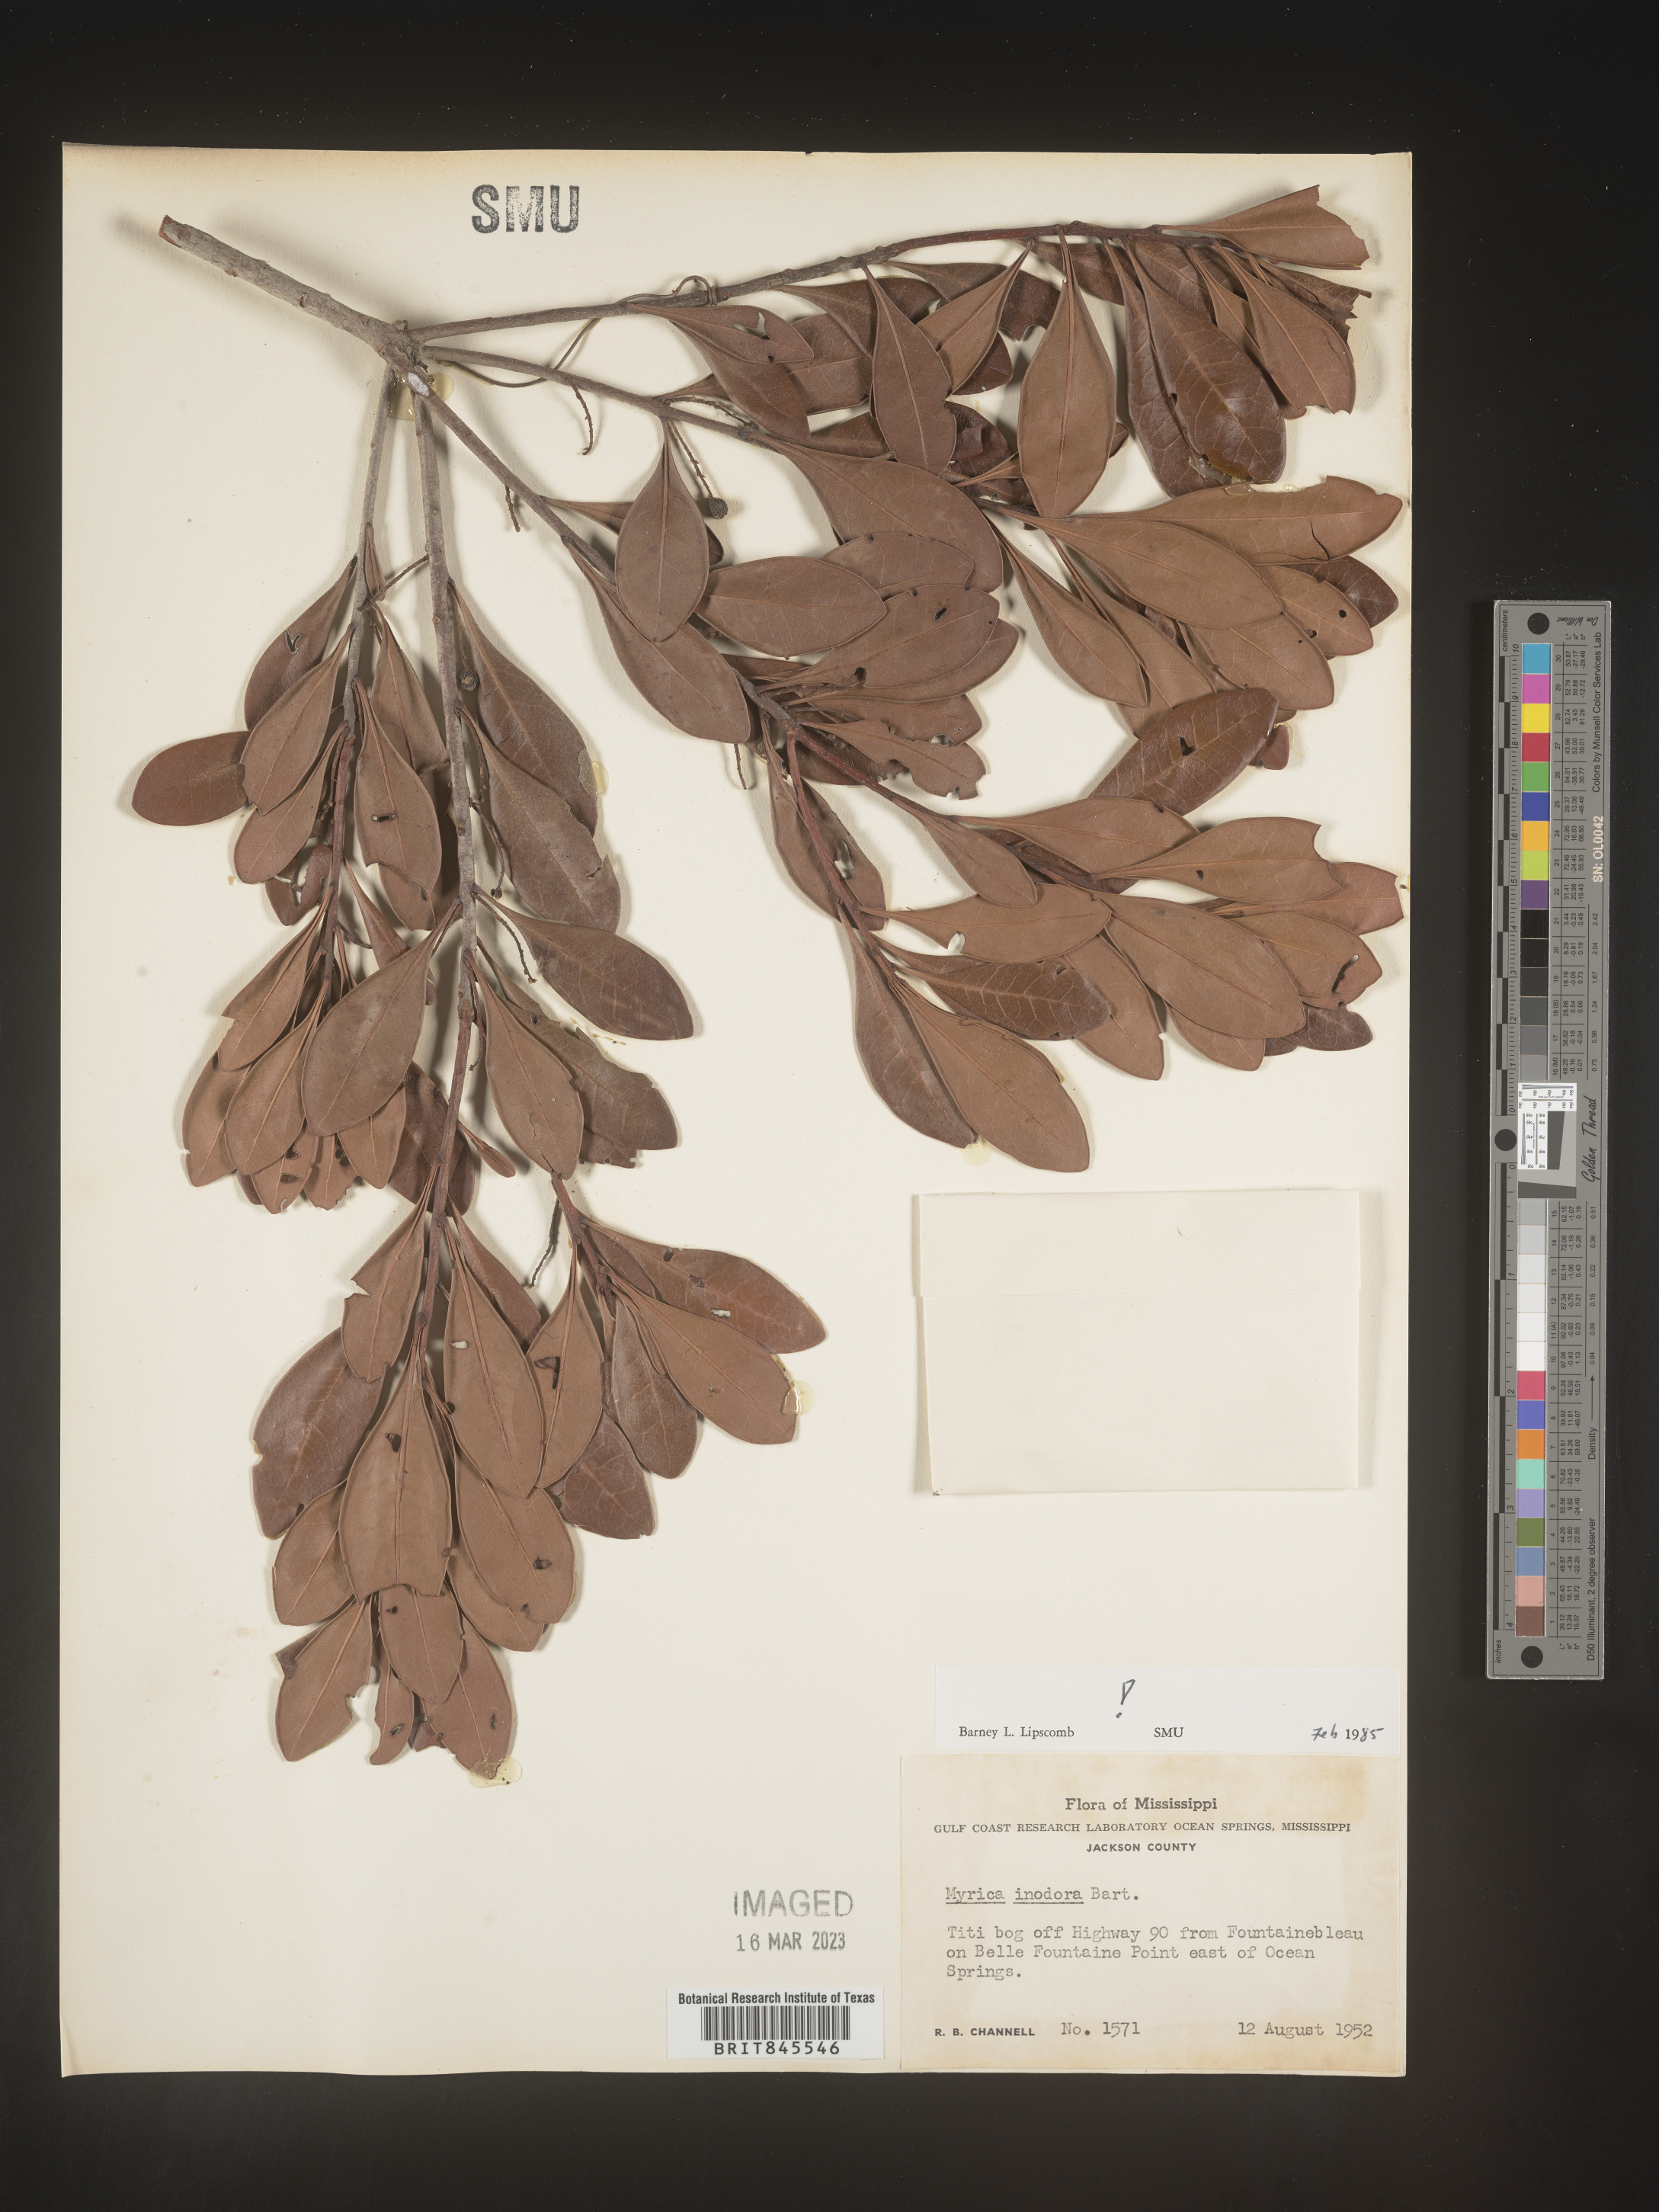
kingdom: Plantae
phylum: Tracheophyta
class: Magnoliopsida
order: Fagales
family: Myricaceae
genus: Myrica
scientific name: Myrica
